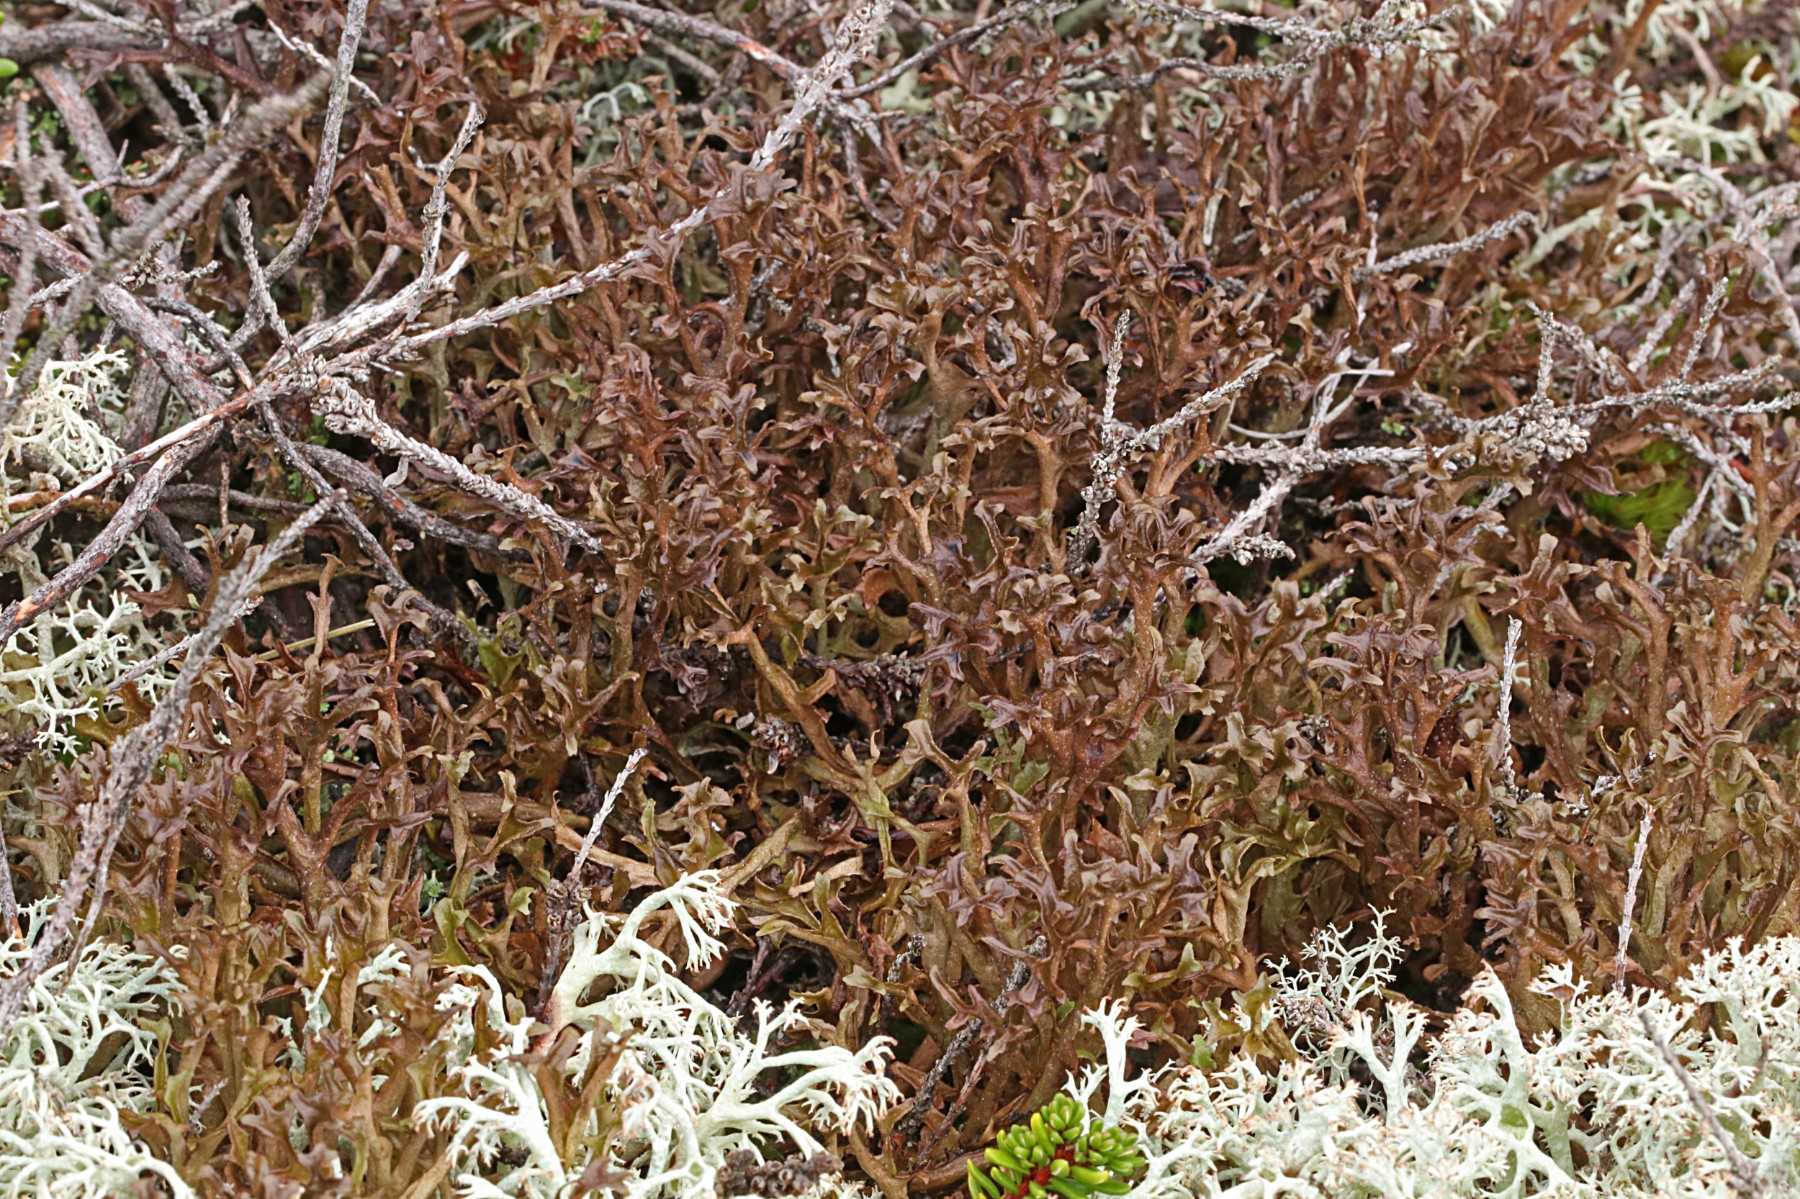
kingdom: Fungi
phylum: Ascomycota
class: Lecanoromycetes
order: Lecanorales
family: Parmeliaceae
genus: Cetraria
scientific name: Cetraria islandica
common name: islandsk kruslav
